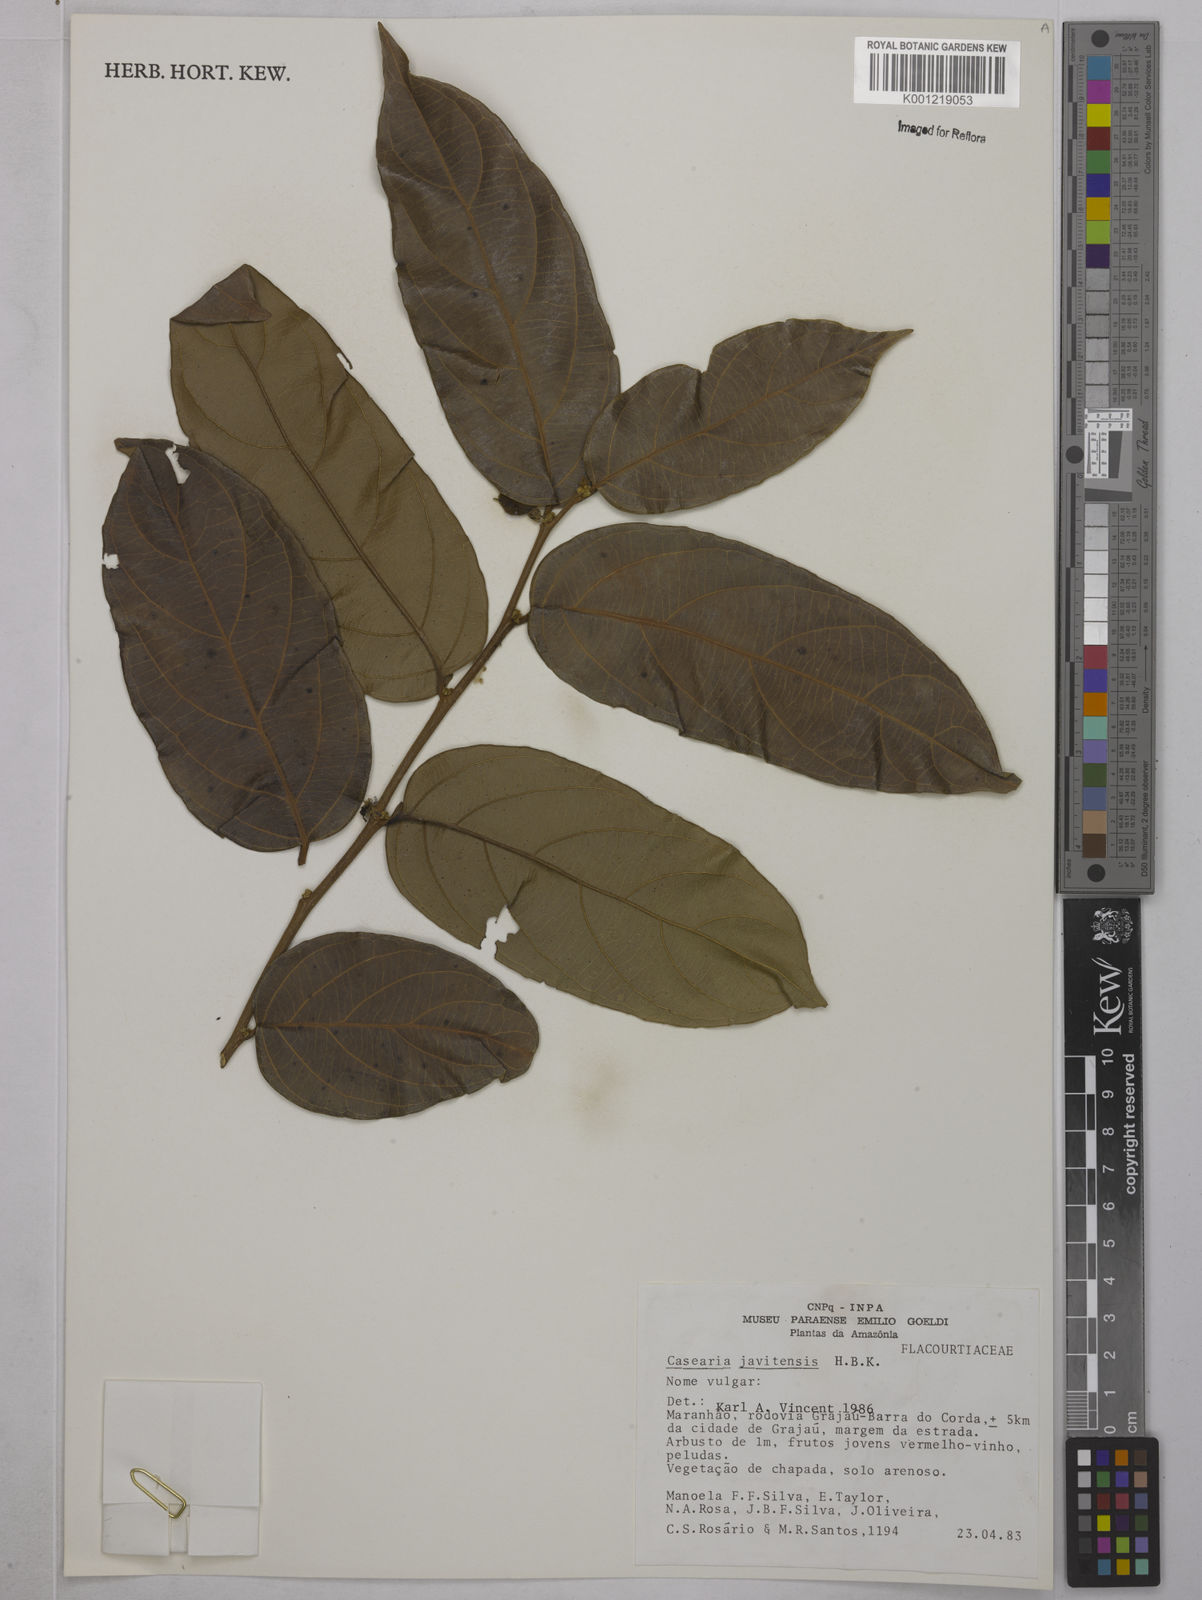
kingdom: Plantae
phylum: Tracheophyta
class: Magnoliopsida
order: Malpighiales
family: Salicaceae
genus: Piparea
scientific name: Piparea multiflora
